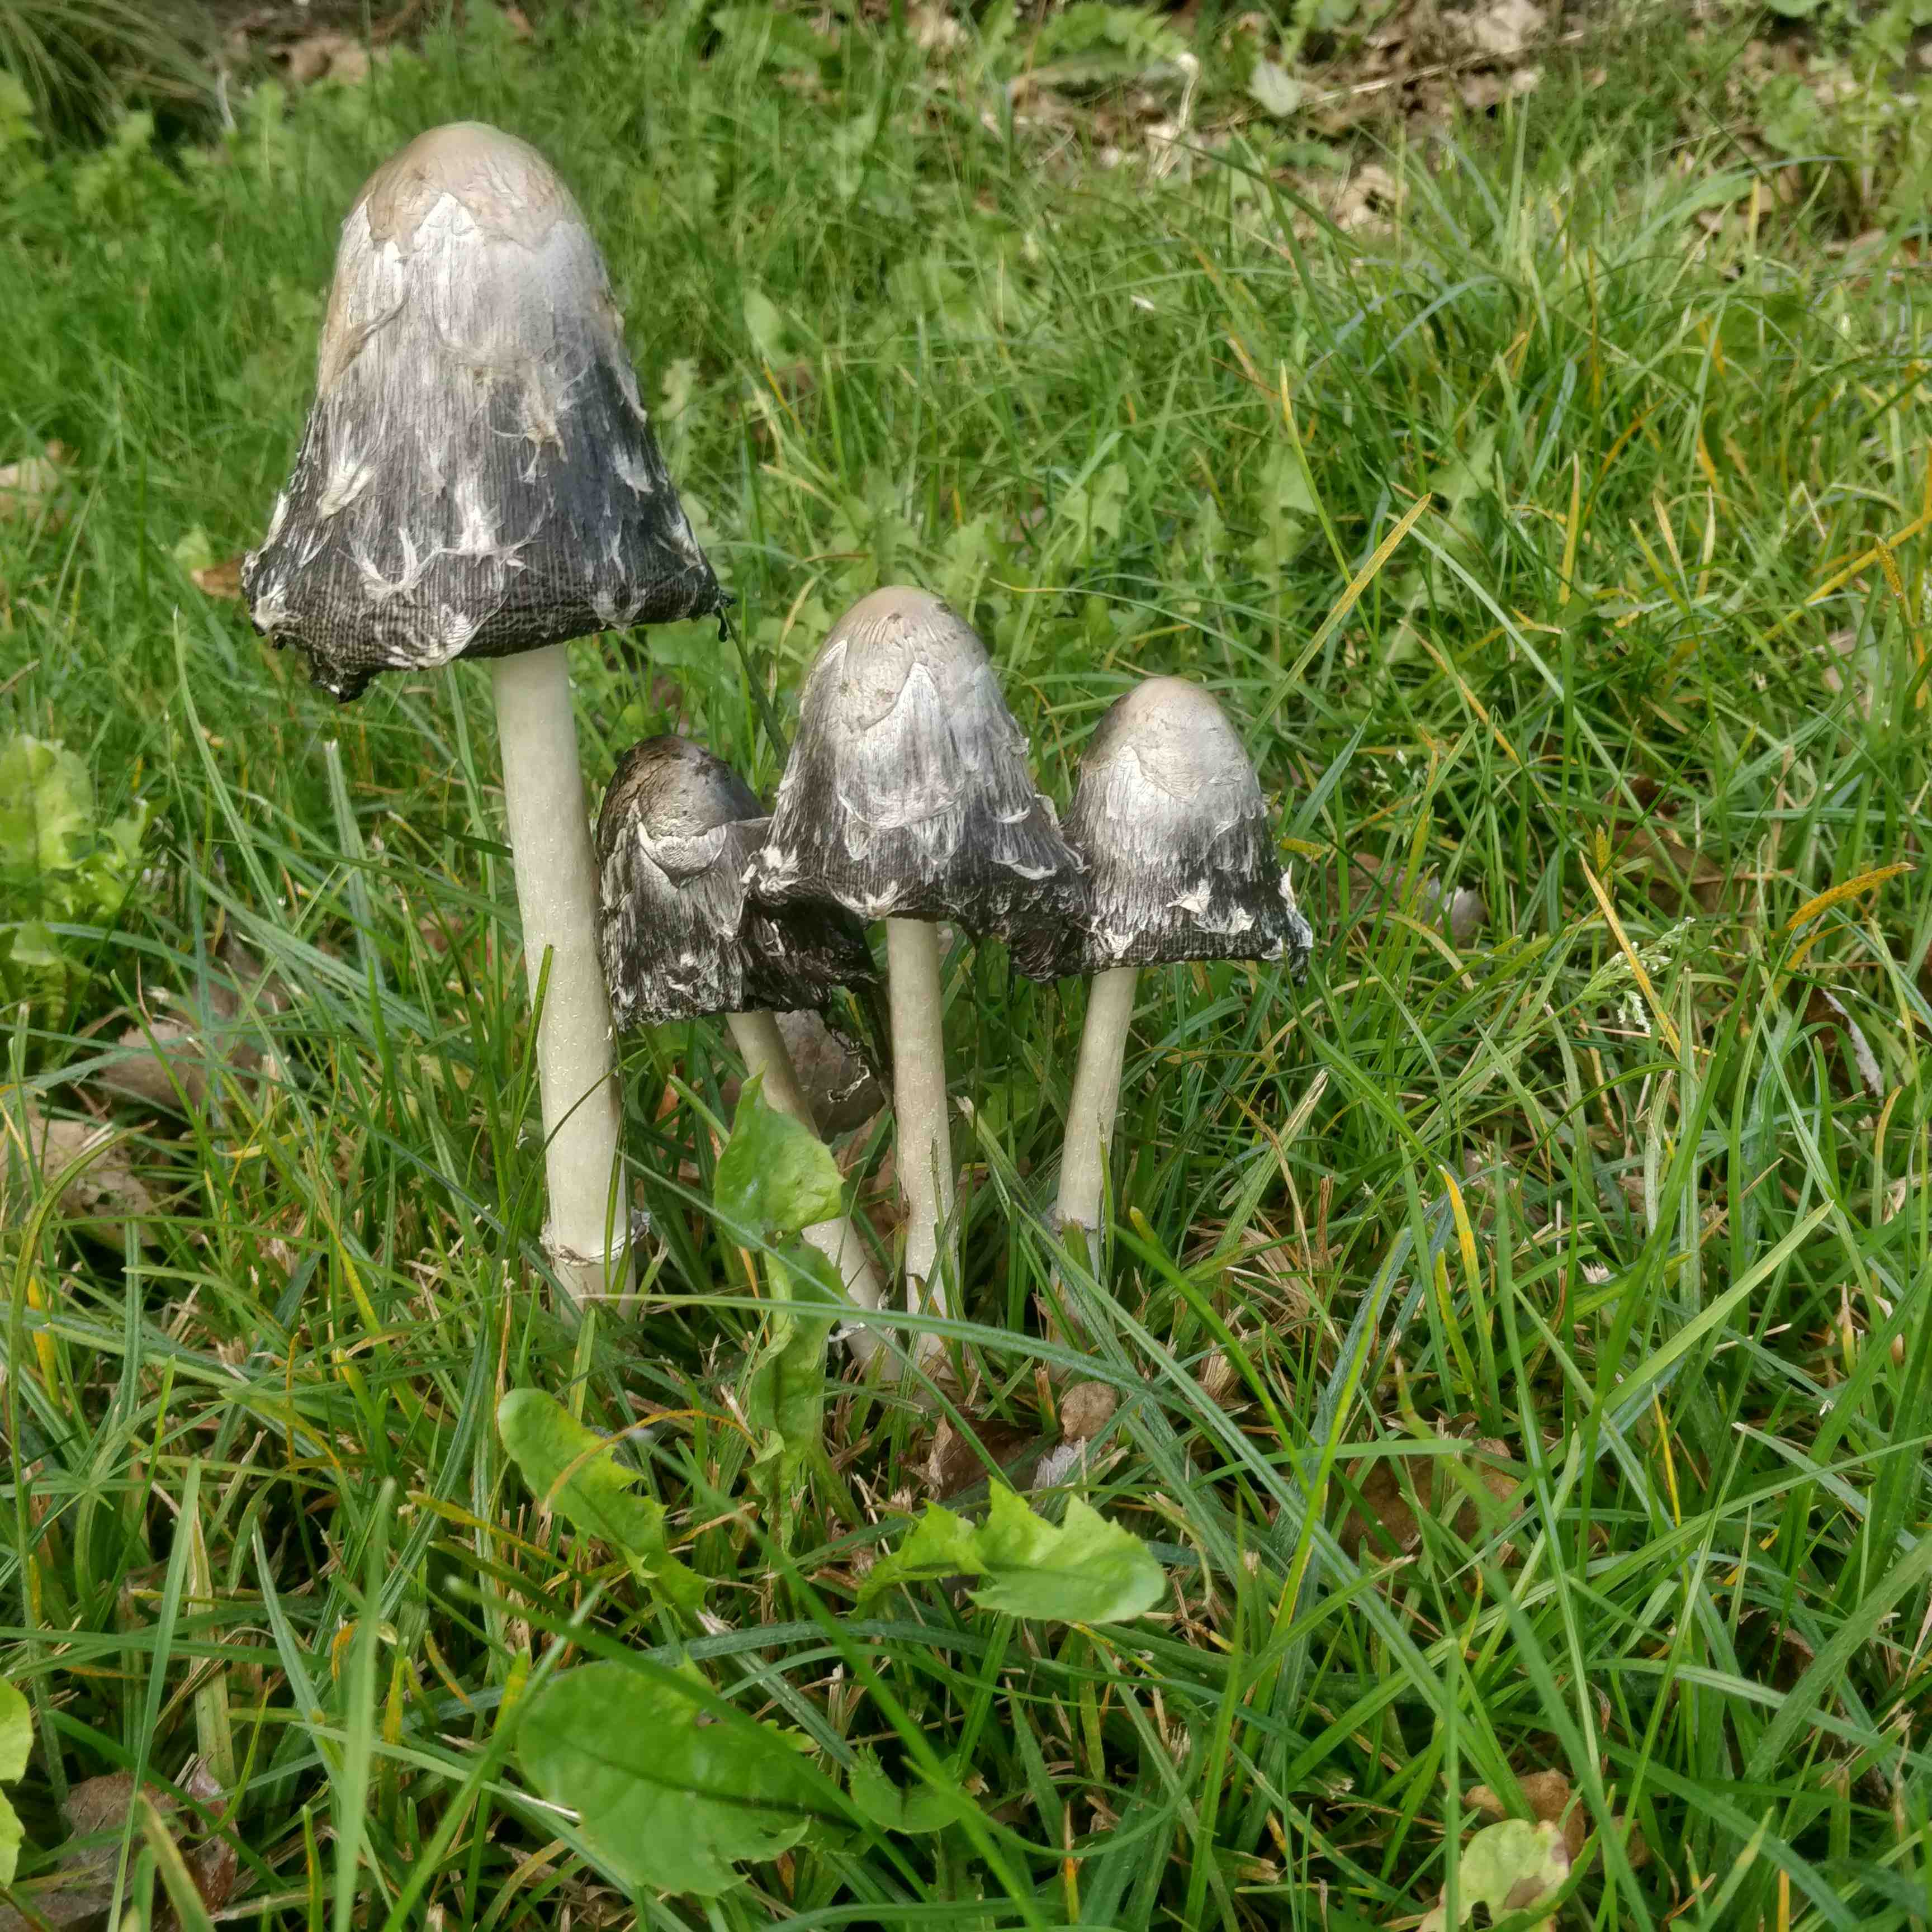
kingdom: Fungi
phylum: Basidiomycota
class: Agaricomycetes
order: Agaricales
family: Agaricaceae
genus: Coprinus
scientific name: Coprinus comatus
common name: stor parykhat
